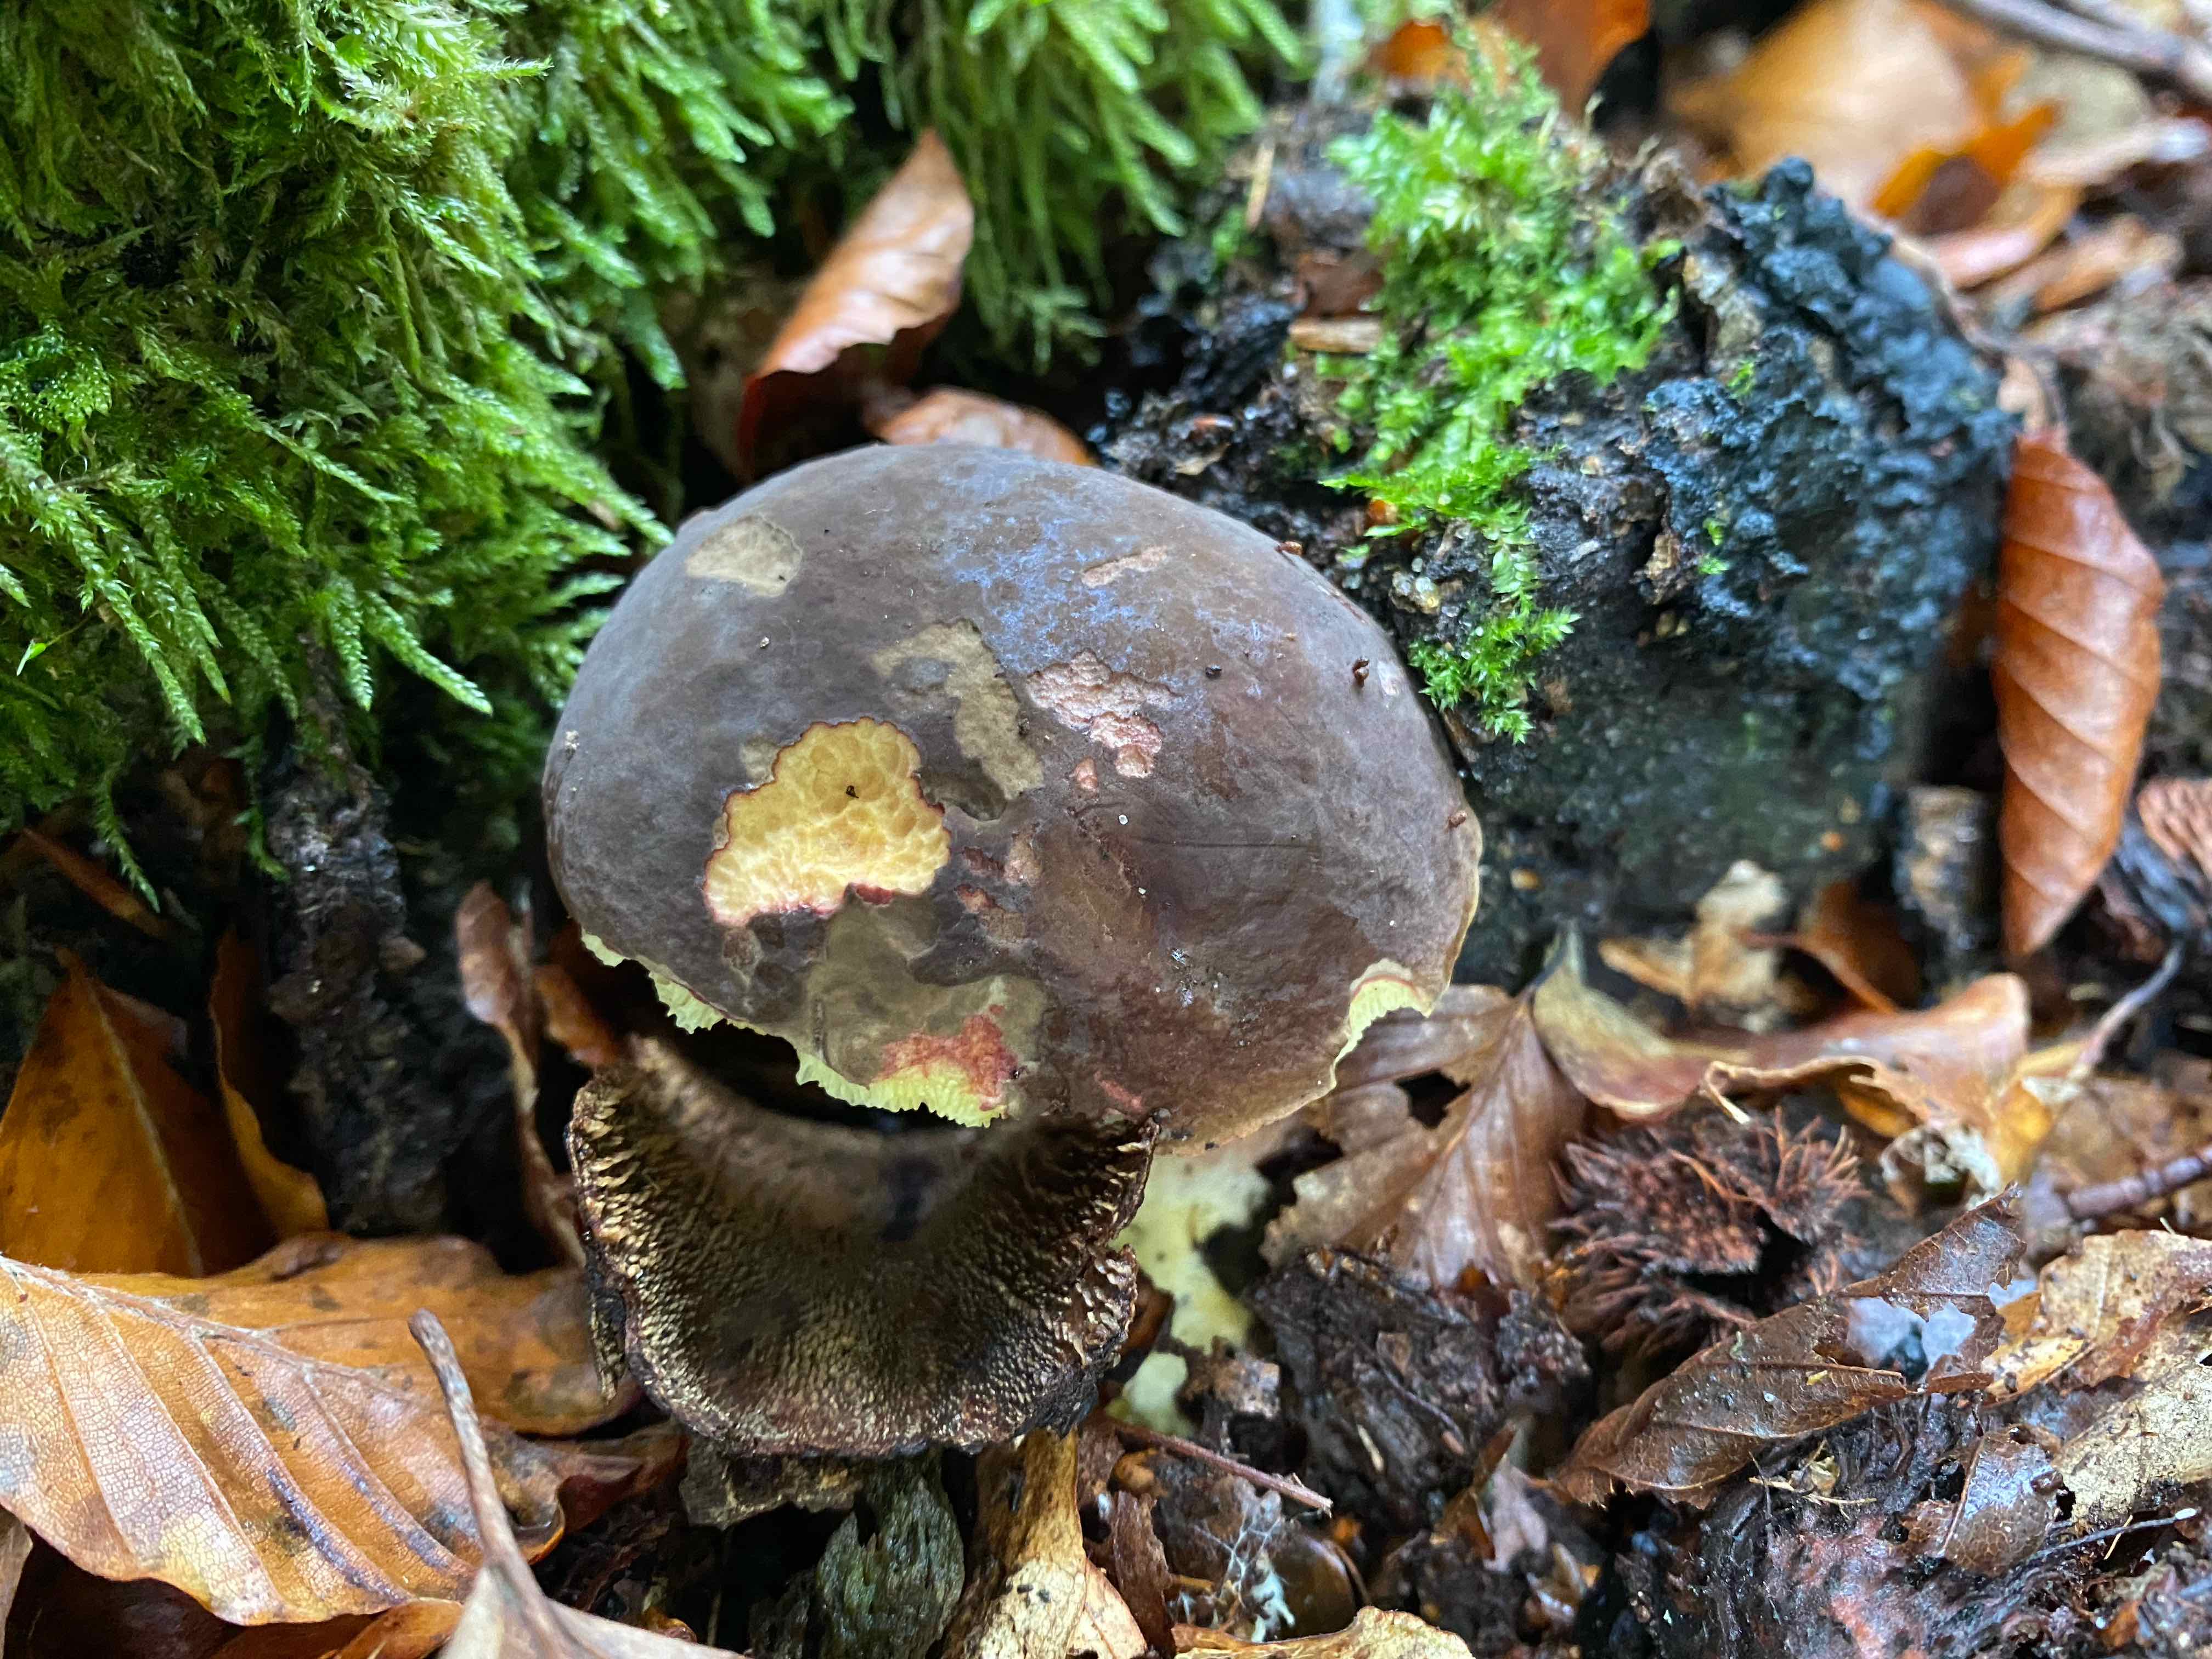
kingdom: Fungi
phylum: Basidiomycota
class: Agaricomycetes
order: Boletales
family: Boletaceae
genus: Xerocomellus
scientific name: Xerocomellus pruinatus
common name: dugget rørhat
